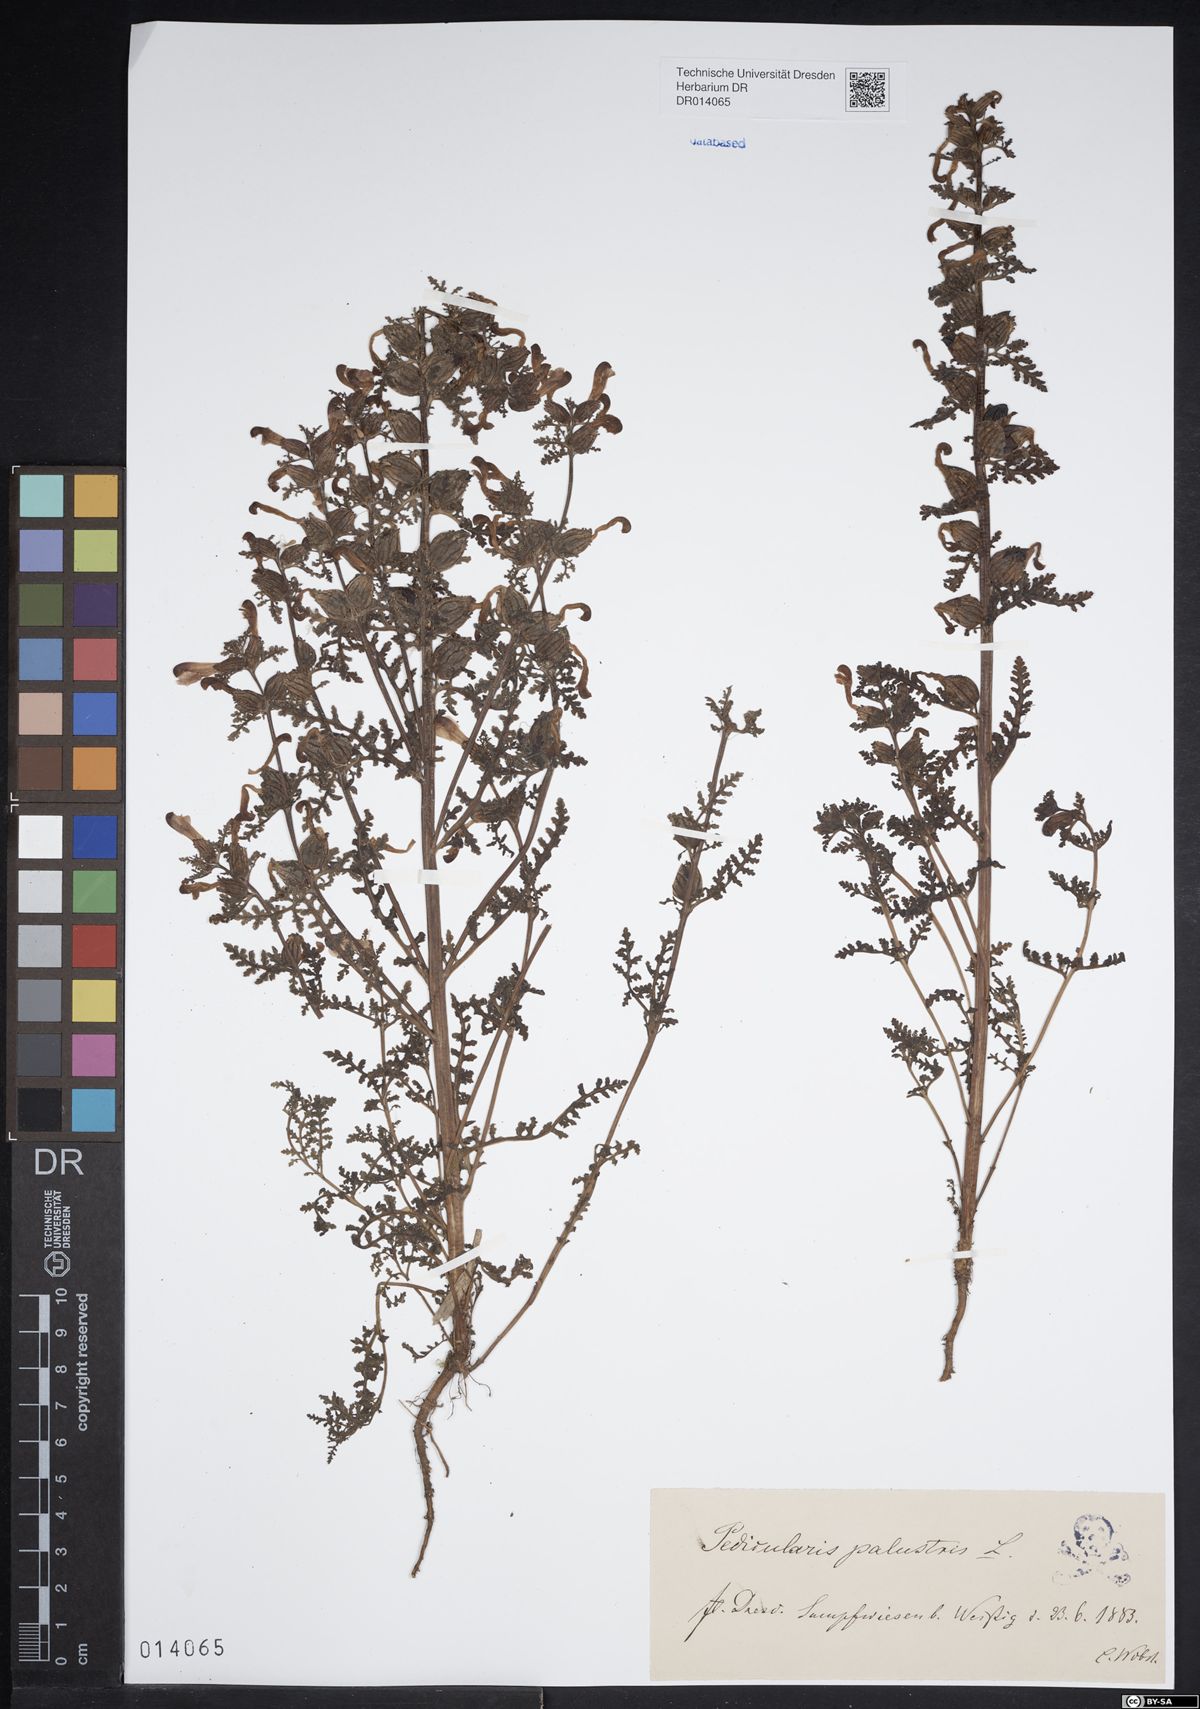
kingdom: Plantae
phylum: Tracheophyta
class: Magnoliopsida
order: Lamiales
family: Orobanchaceae
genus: Pedicularis
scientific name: Pedicularis palustris
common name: Marsh lousewort
